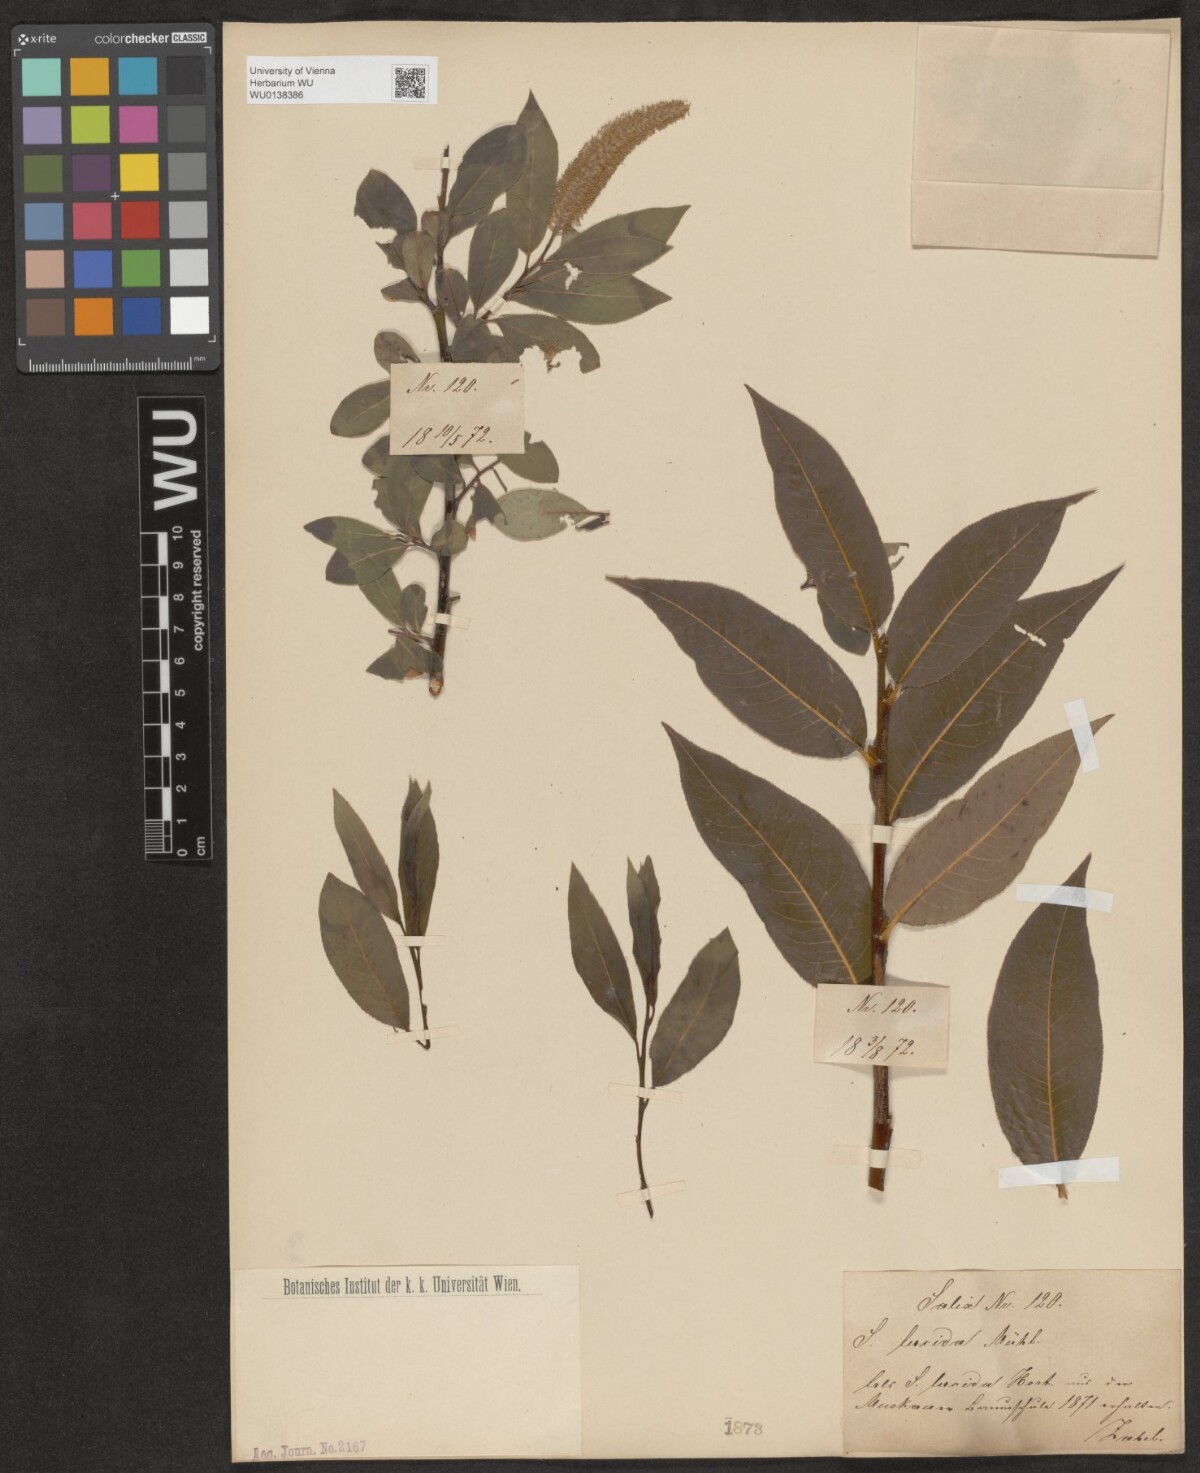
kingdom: Plantae
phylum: Tracheophyta
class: Magnoliopsida
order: Malpighiales
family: Salicaceae
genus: Salix
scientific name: Salix lucida
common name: Shining willow
